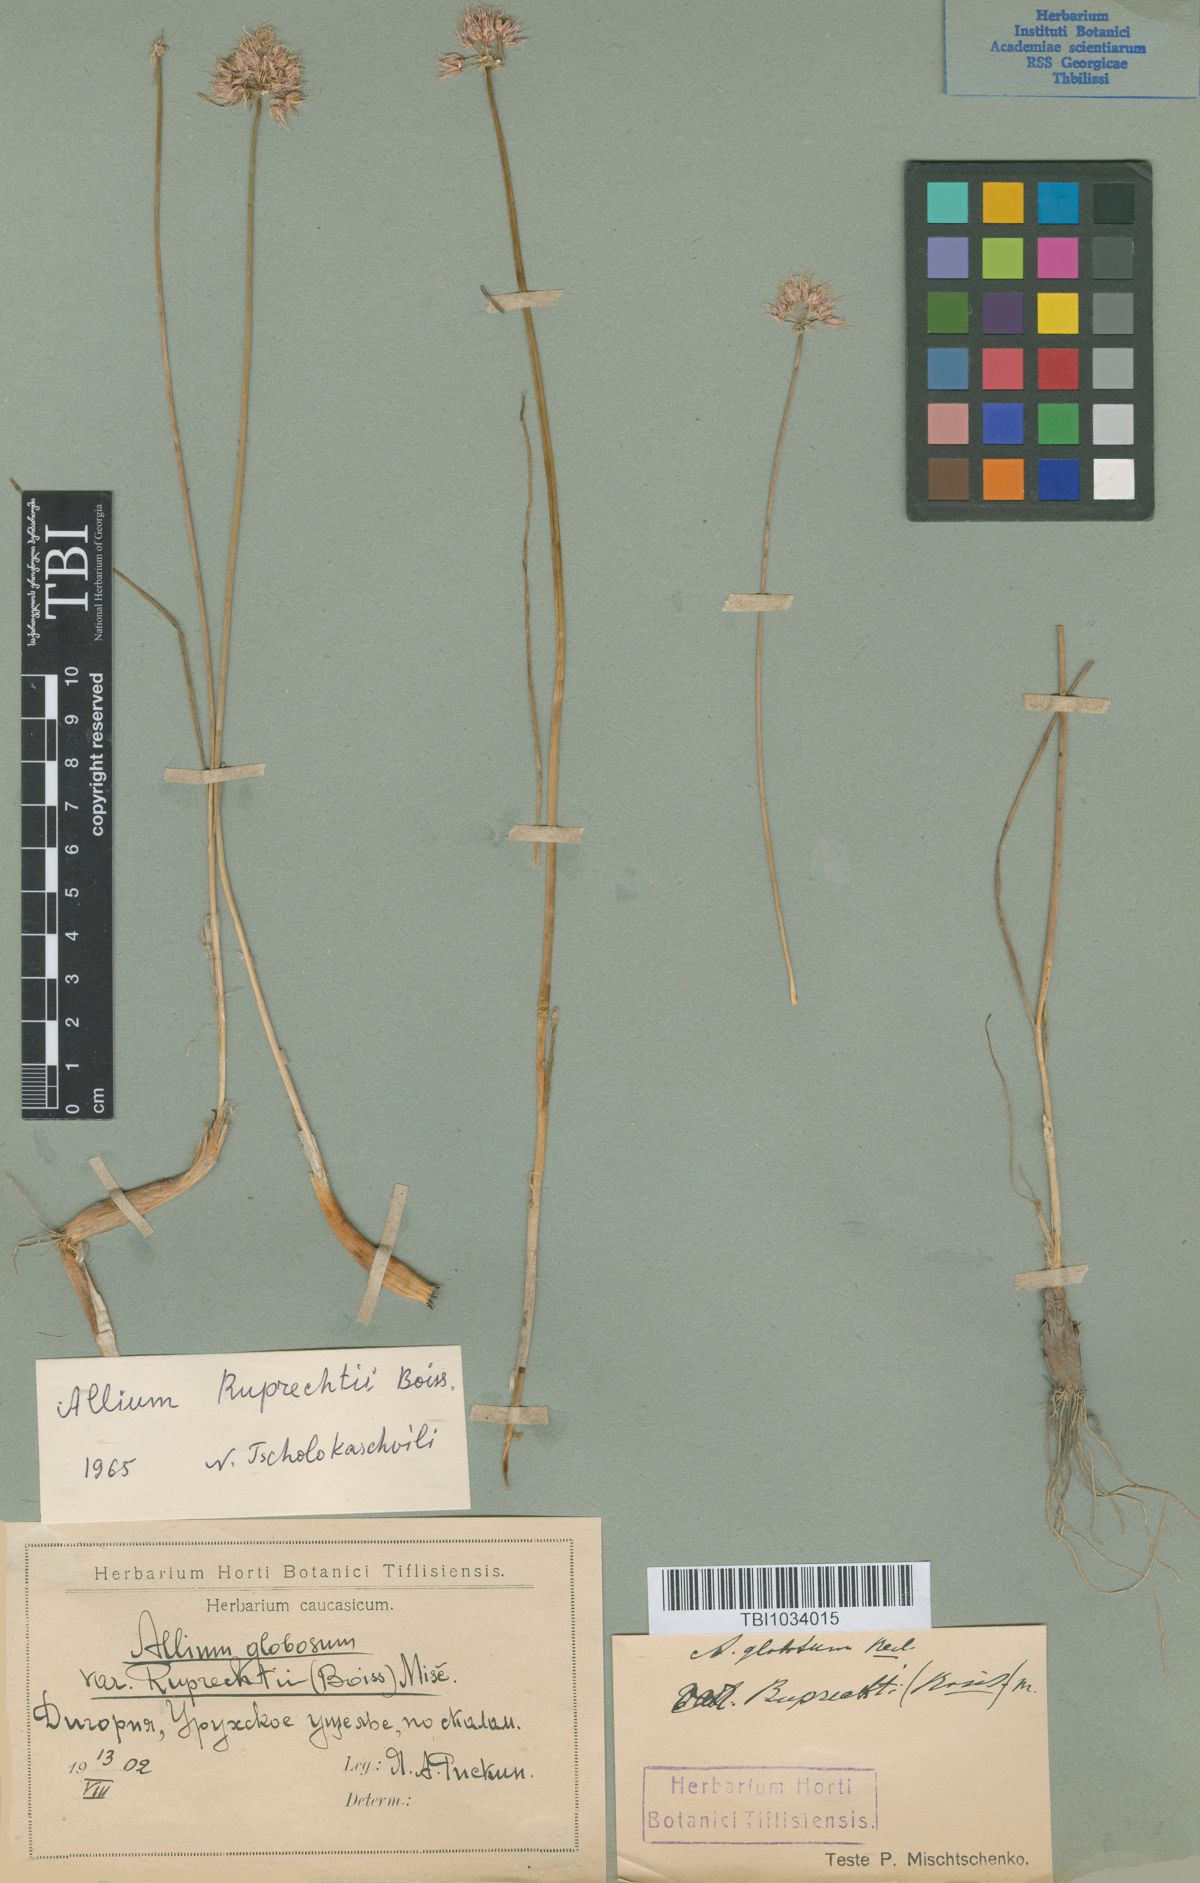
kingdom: Plantae
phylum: Tracheophyta
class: Liliopsida
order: Asparagales
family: Amaryllidaceae
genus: Allium
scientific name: Allium saxatile
